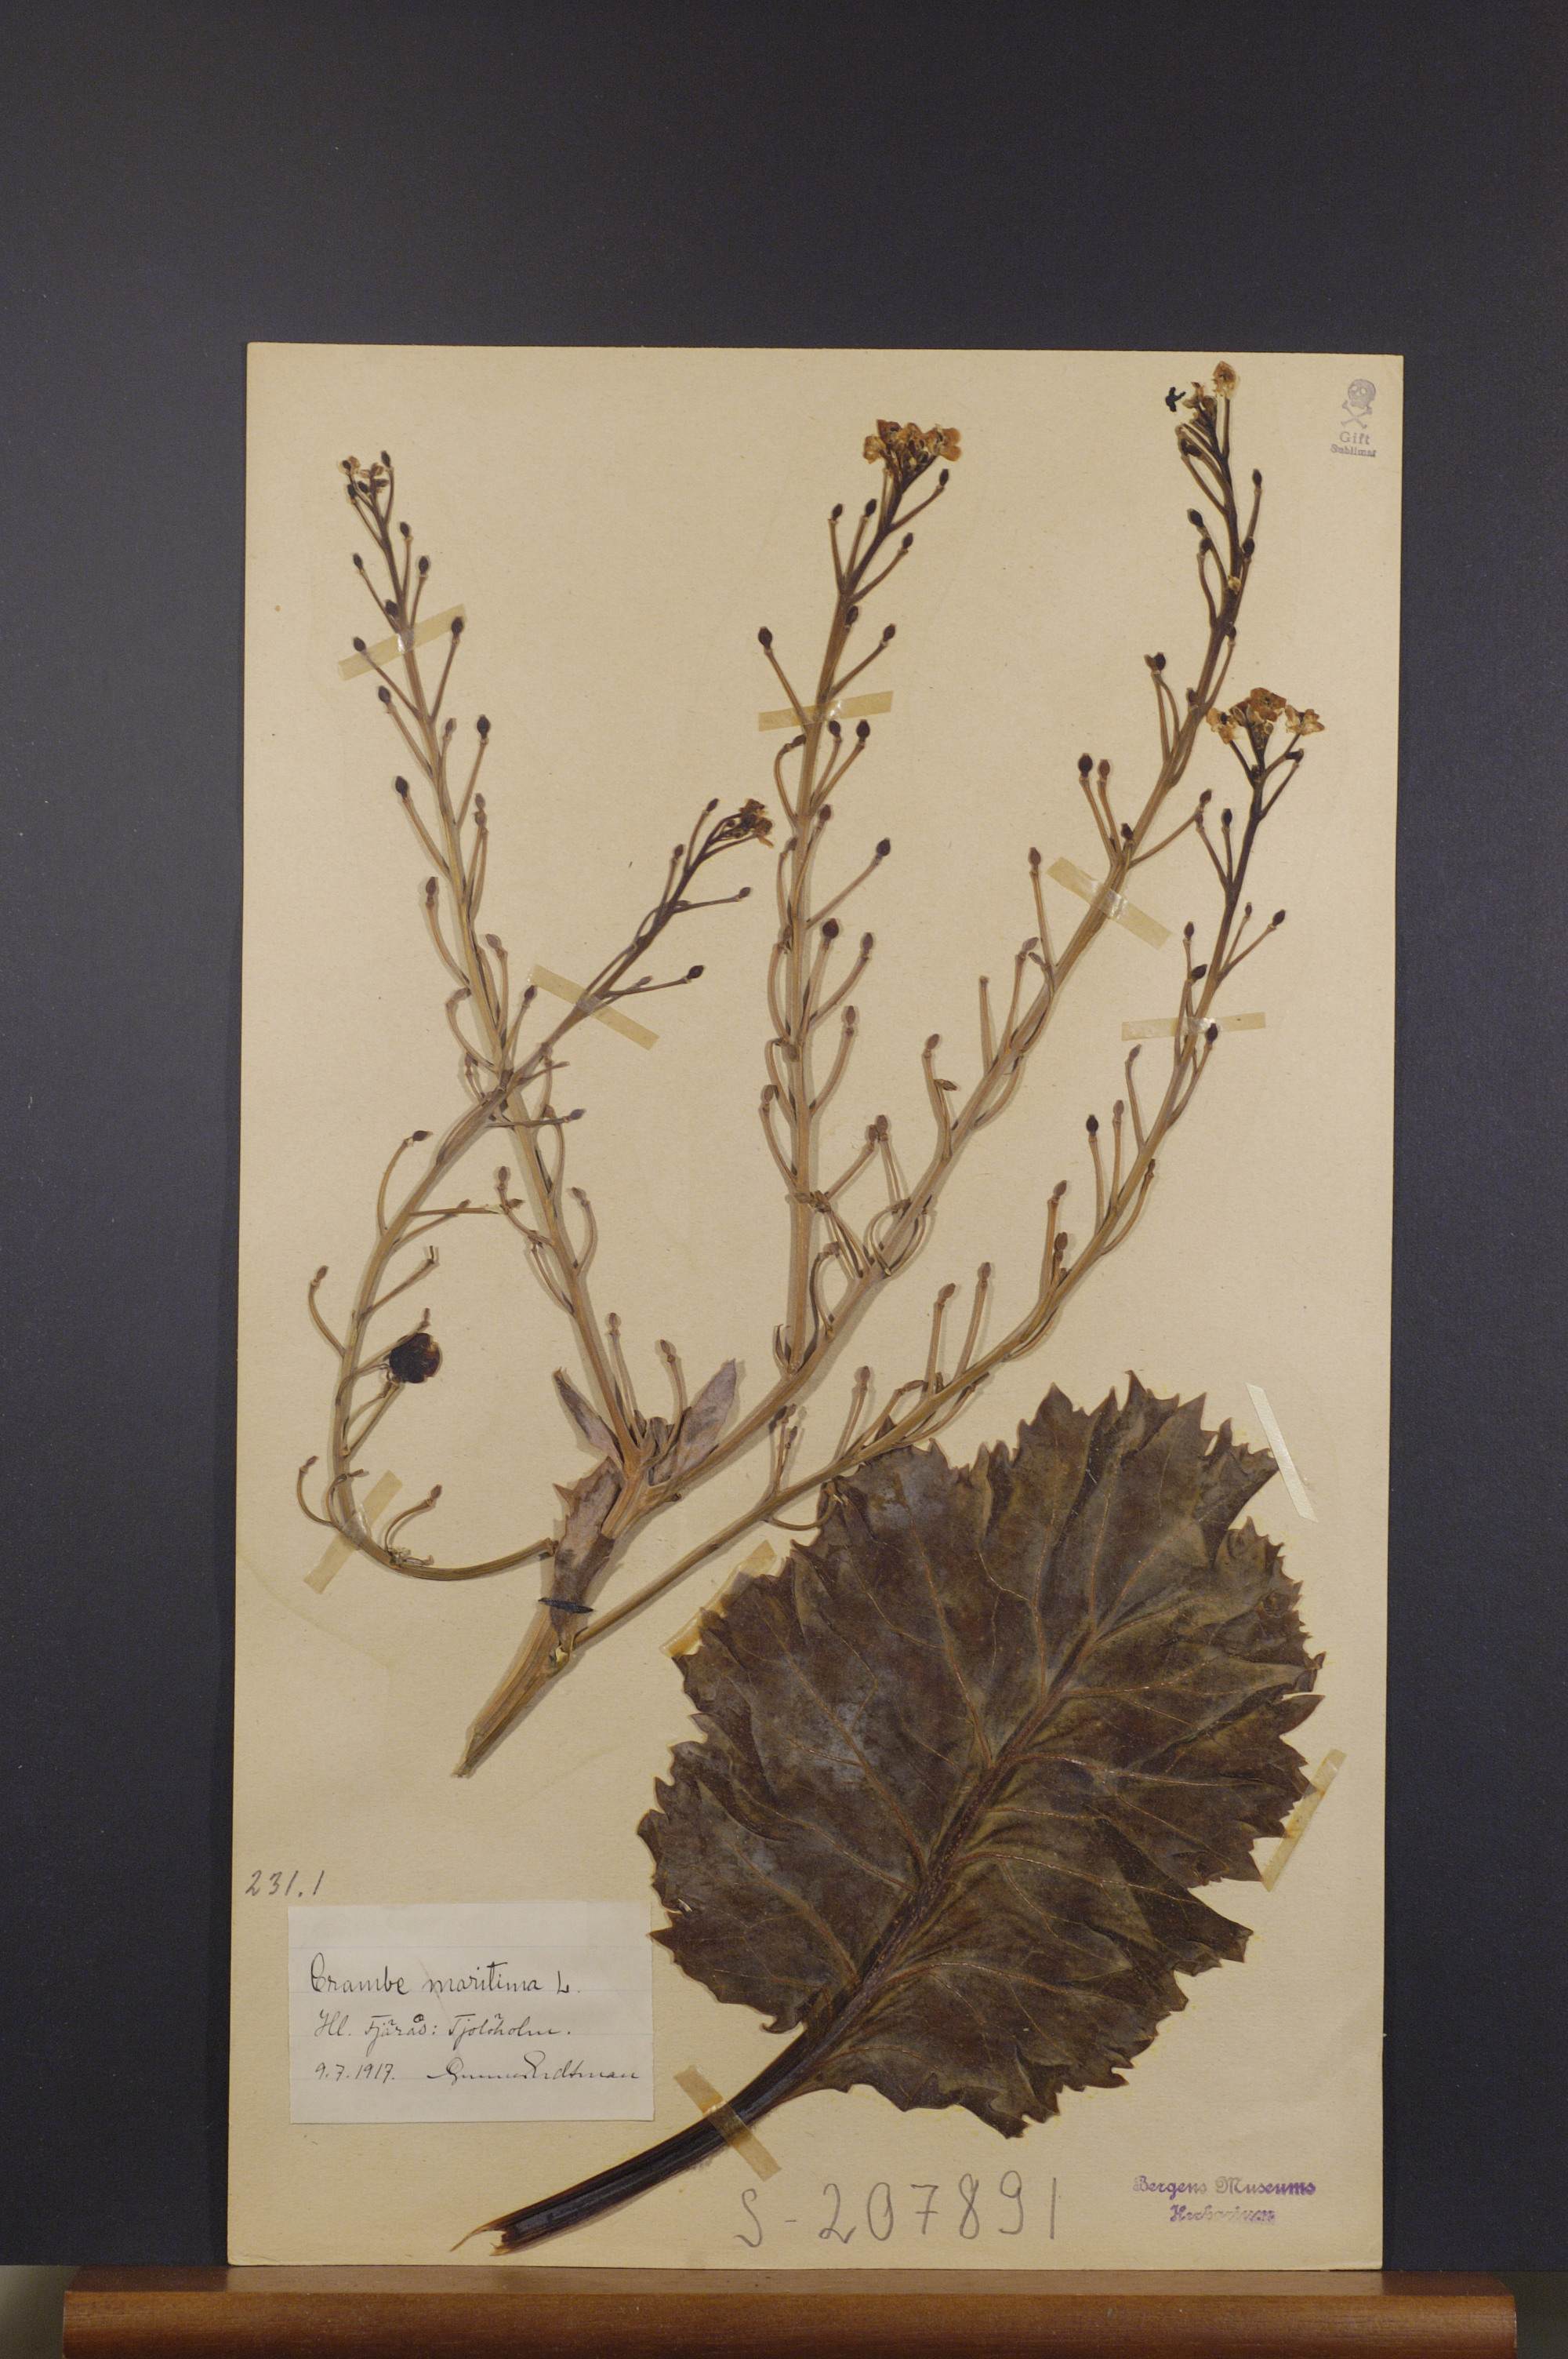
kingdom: Plantae
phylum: Tracheophyta
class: Magnoliopsida
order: Brassicales
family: Brassicaceae
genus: Crambe
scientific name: Crambe maritima
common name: Sea-kale
